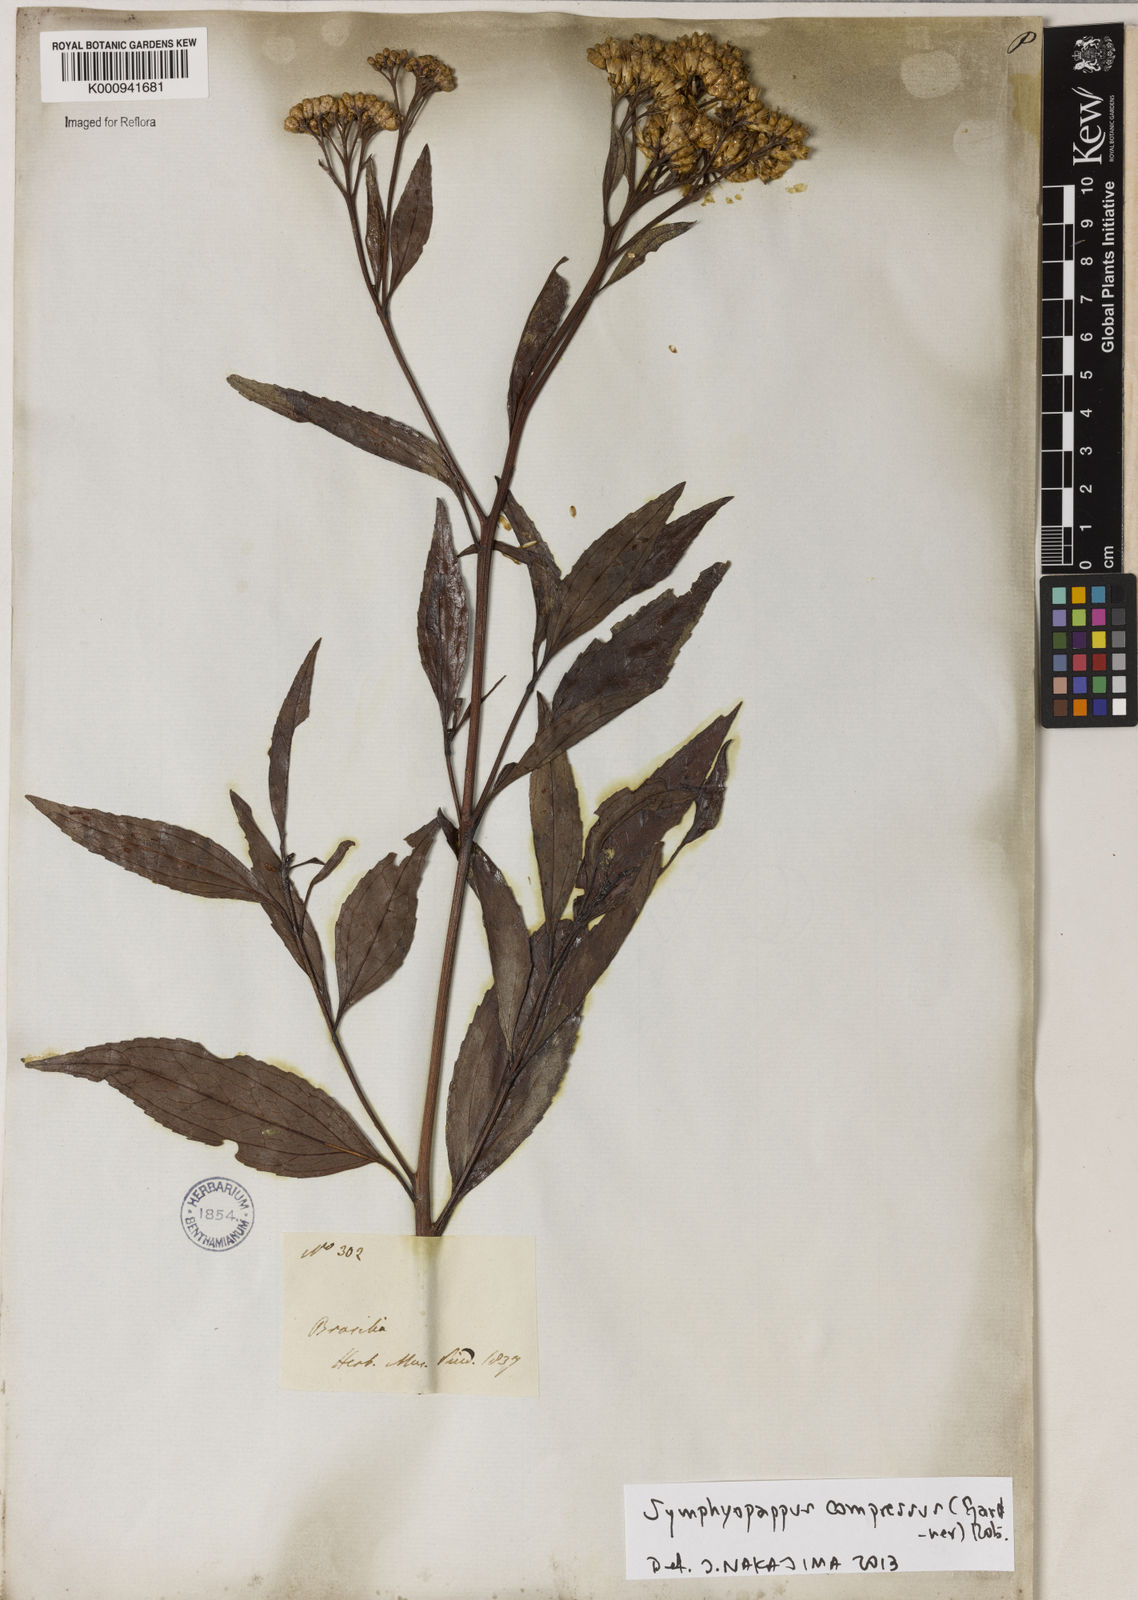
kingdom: Plantae
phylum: Tracheophyta
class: Magnoliopsida
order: Asterales
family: Asteraceae
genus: Symphyopappus
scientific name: Symphyopappus compressus
